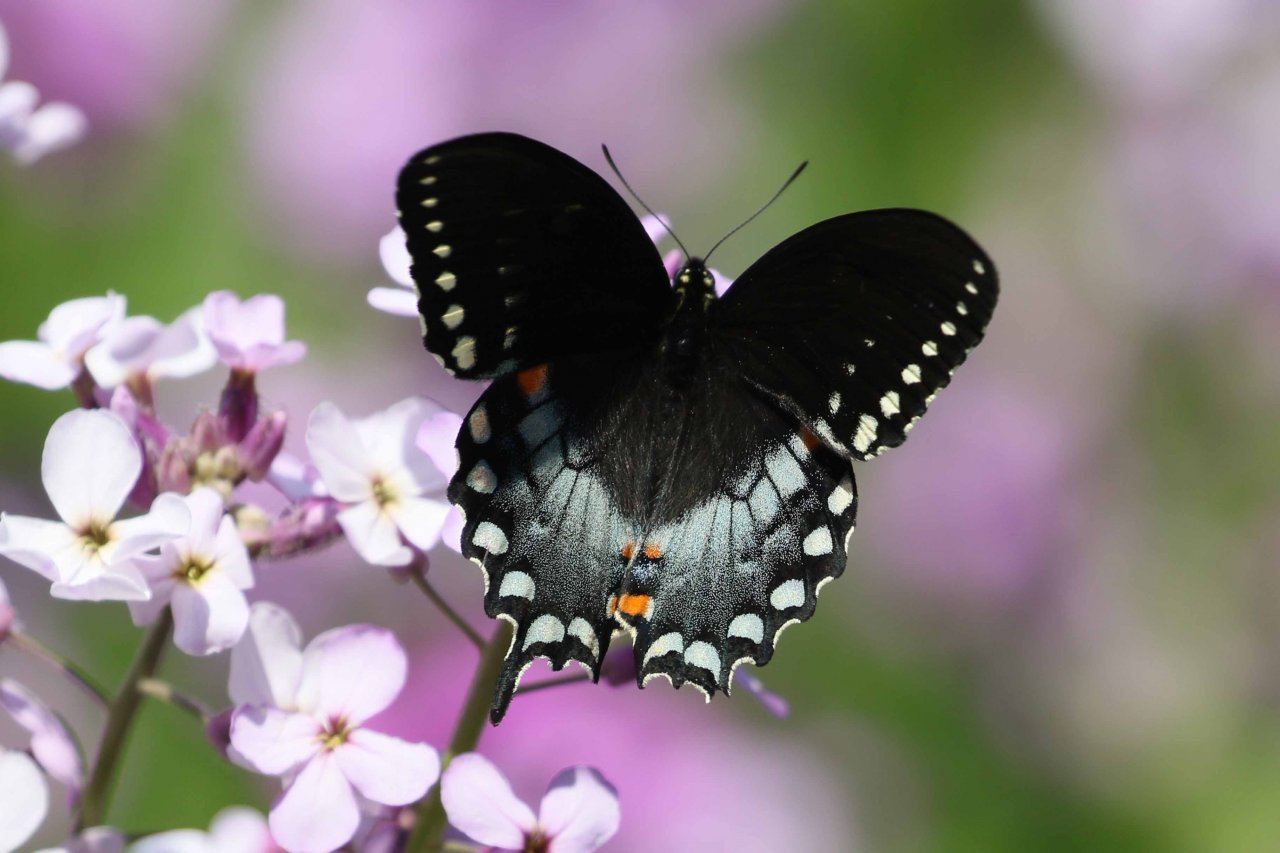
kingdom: Animalia
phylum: Arthropoda
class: Insecta
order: Lepidoptera
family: Papilionidae
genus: Pterourus
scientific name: Pterourus troilus
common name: Spicebush Swallowtail
